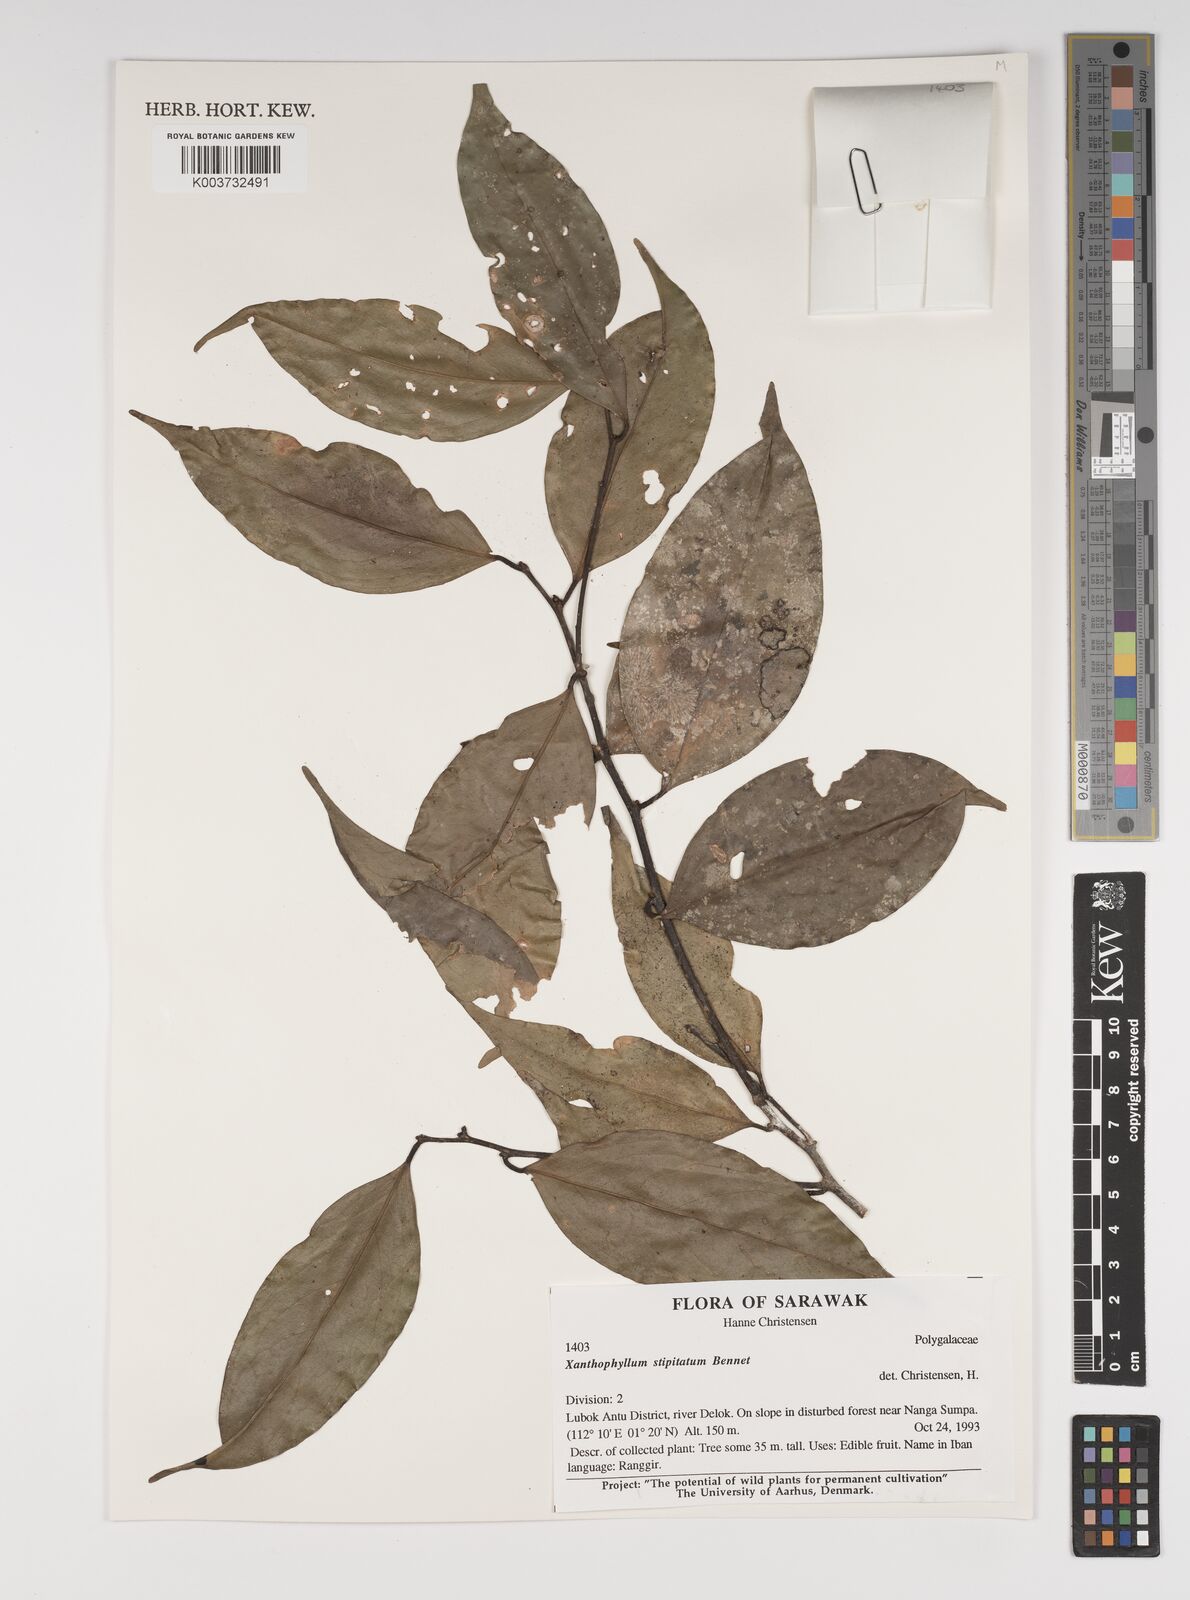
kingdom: Plantae
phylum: Tracheophyta
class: Magnoliopsida
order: Fabales
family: Polygalaceae
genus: Xanthophyllum
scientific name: Xanthophyllum stipitatum
